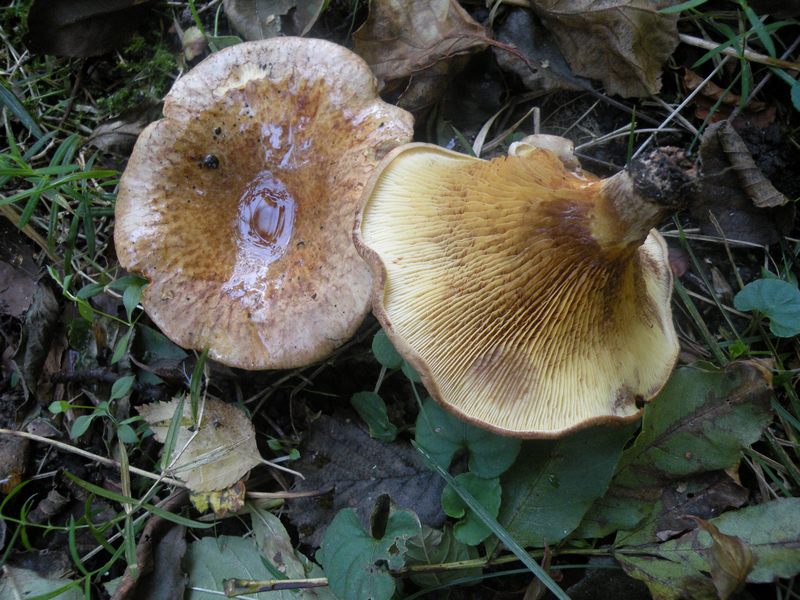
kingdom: Fungi
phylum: Basidiomycota
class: Agaricomycetes
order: Boletales
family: Paxillaceae
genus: Paxillus
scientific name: Paxillus rubicundulus
